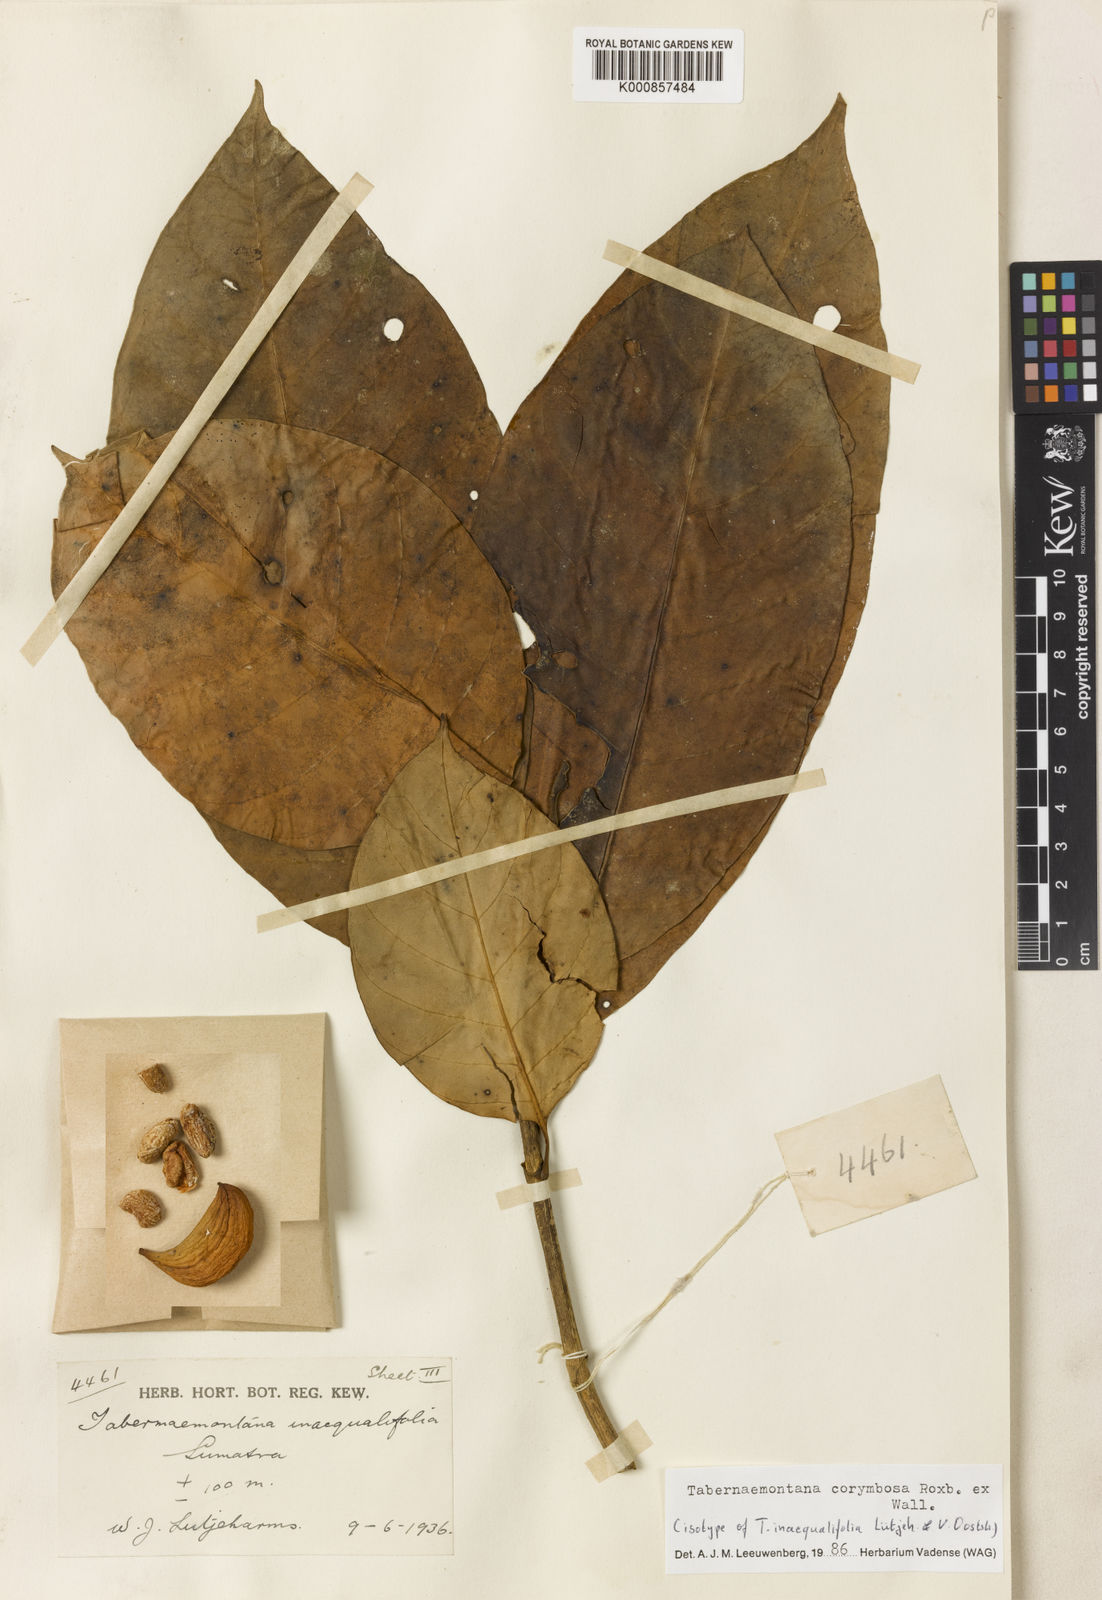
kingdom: Plantae
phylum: Tracheophyta
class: Magnoliopsida
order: Gentianales
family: Apocynaceae
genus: Tabernaemontana
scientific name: Tabernaemontana corymbosa
